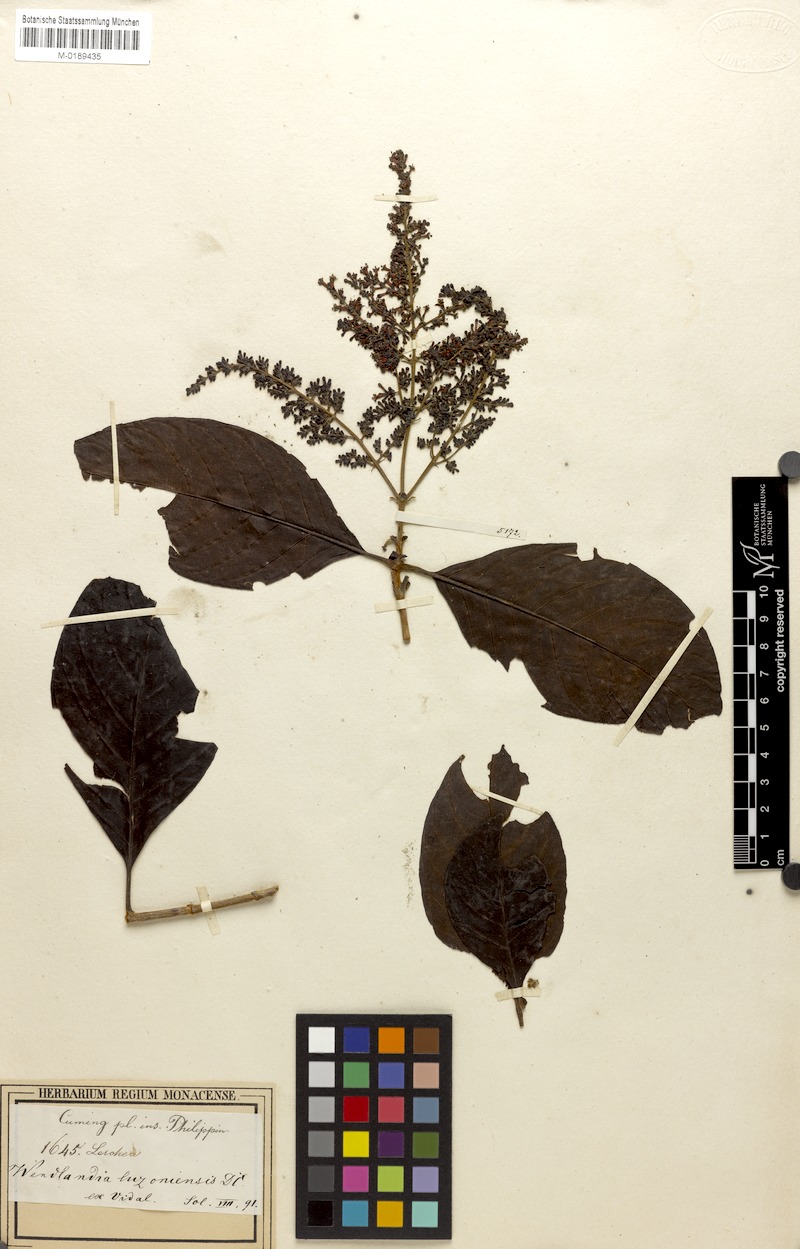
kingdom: Plantae
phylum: Tracheophyta
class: Magnoliopsida
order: Gentianales
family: Rubiaceae
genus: Wendlandia
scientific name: Wendlandia luzoniensis
